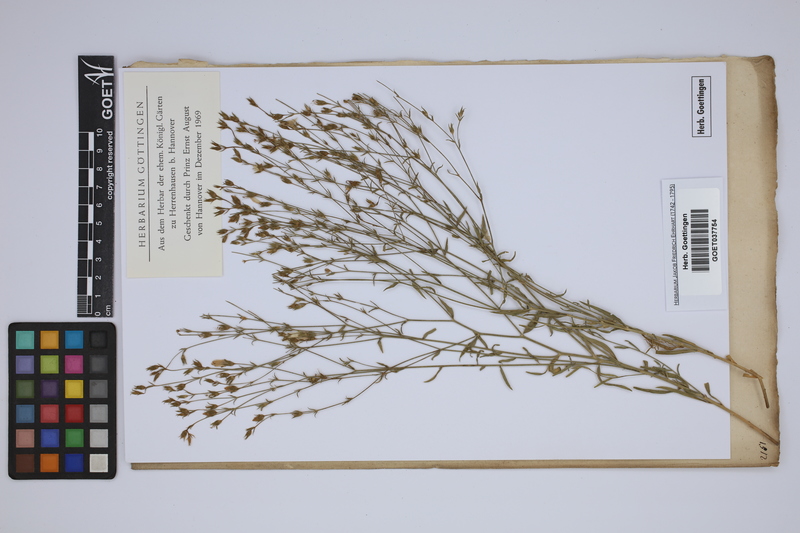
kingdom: Plantae
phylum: Tracheophyta
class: Magnoliopsida
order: Malpighiales
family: Linaceae
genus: Linum
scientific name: Linum
